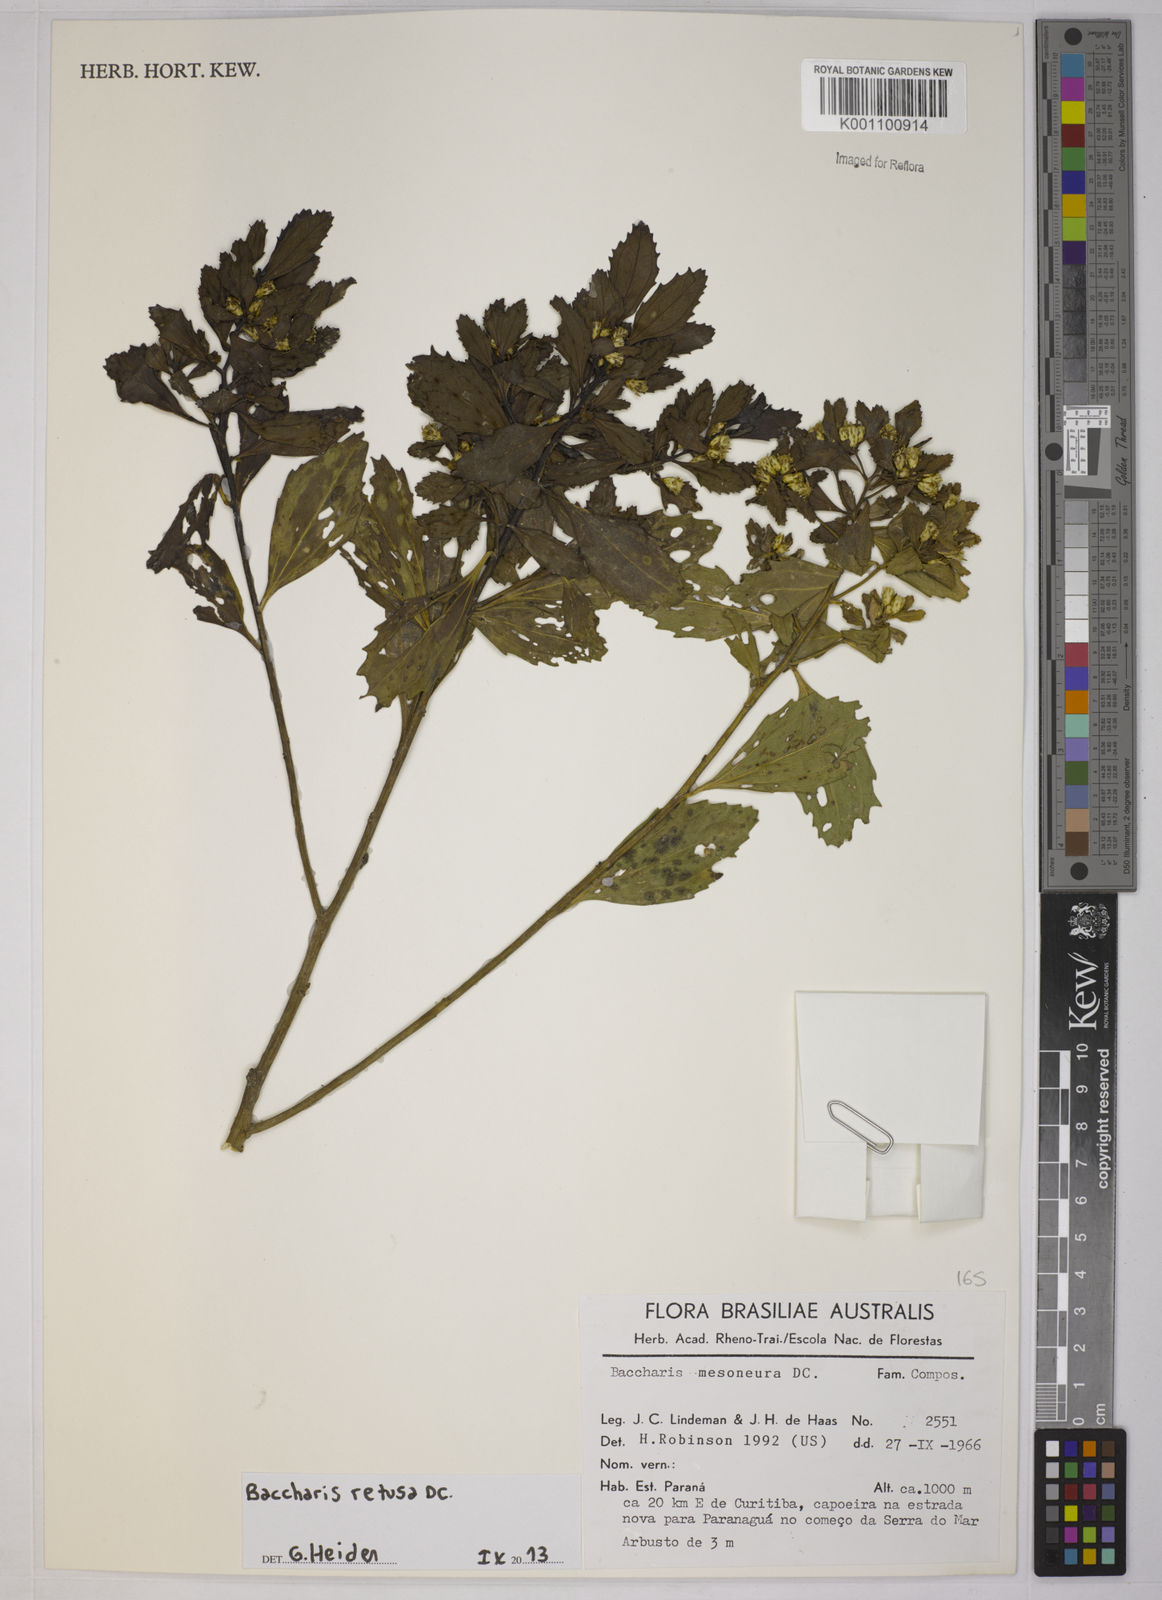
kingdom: Plantae
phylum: Tracheophyta
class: Magnoliopsida
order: Asterales
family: Asteraceae
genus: Baccharis
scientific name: Baccharis retusa
